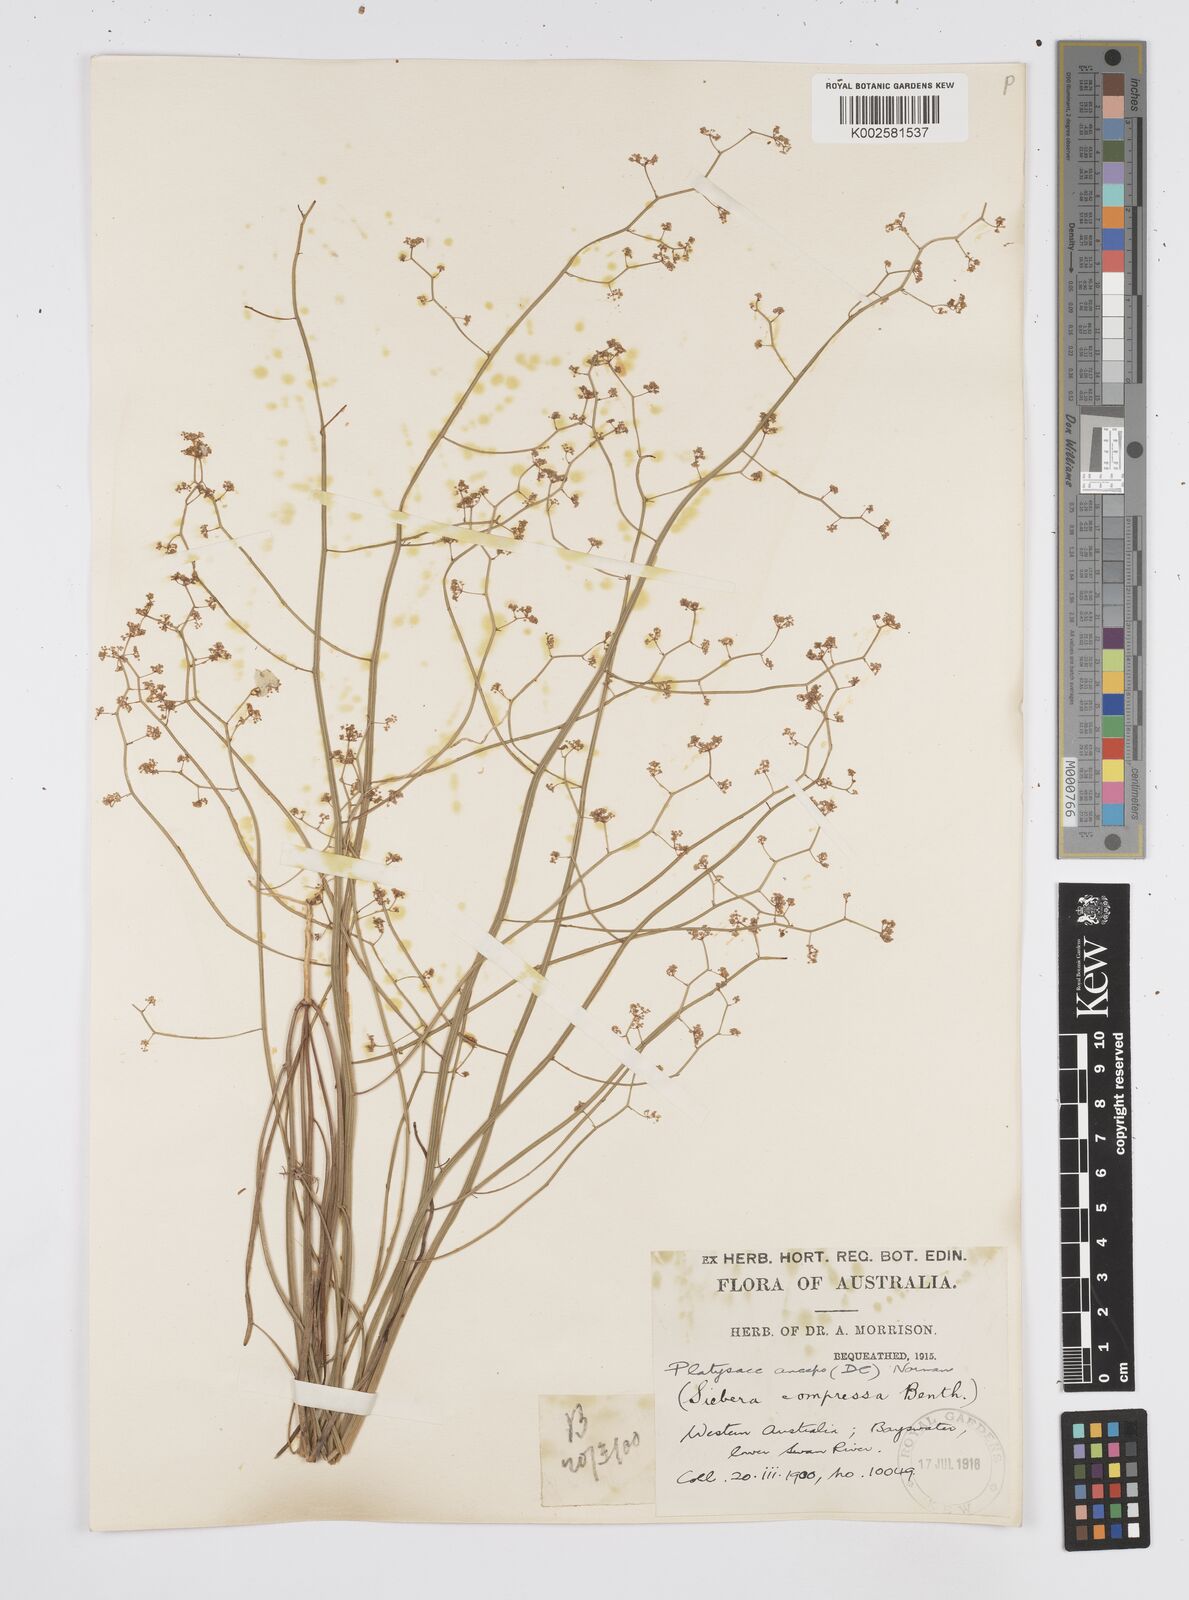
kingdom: Plantae
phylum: Tracheophyta
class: Magnoliopsida
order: Apiales
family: Apiaceae
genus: Centella
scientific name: Centella
